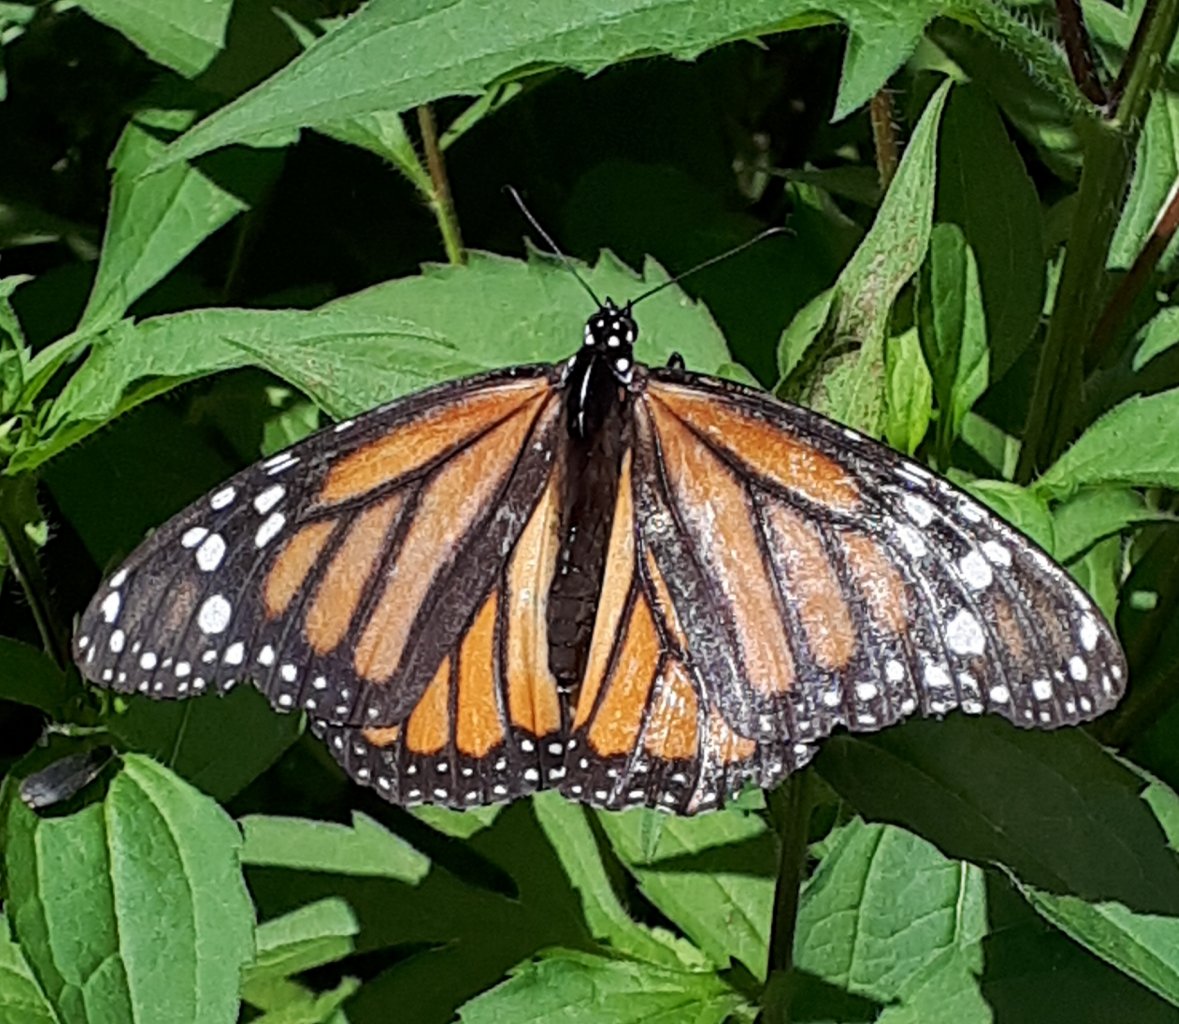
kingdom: Animalia
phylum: Arthropoda
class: Insecta
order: Lepidoptera
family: Nymphalidae
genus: Danaus
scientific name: Danaus plexippus
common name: Monarch
